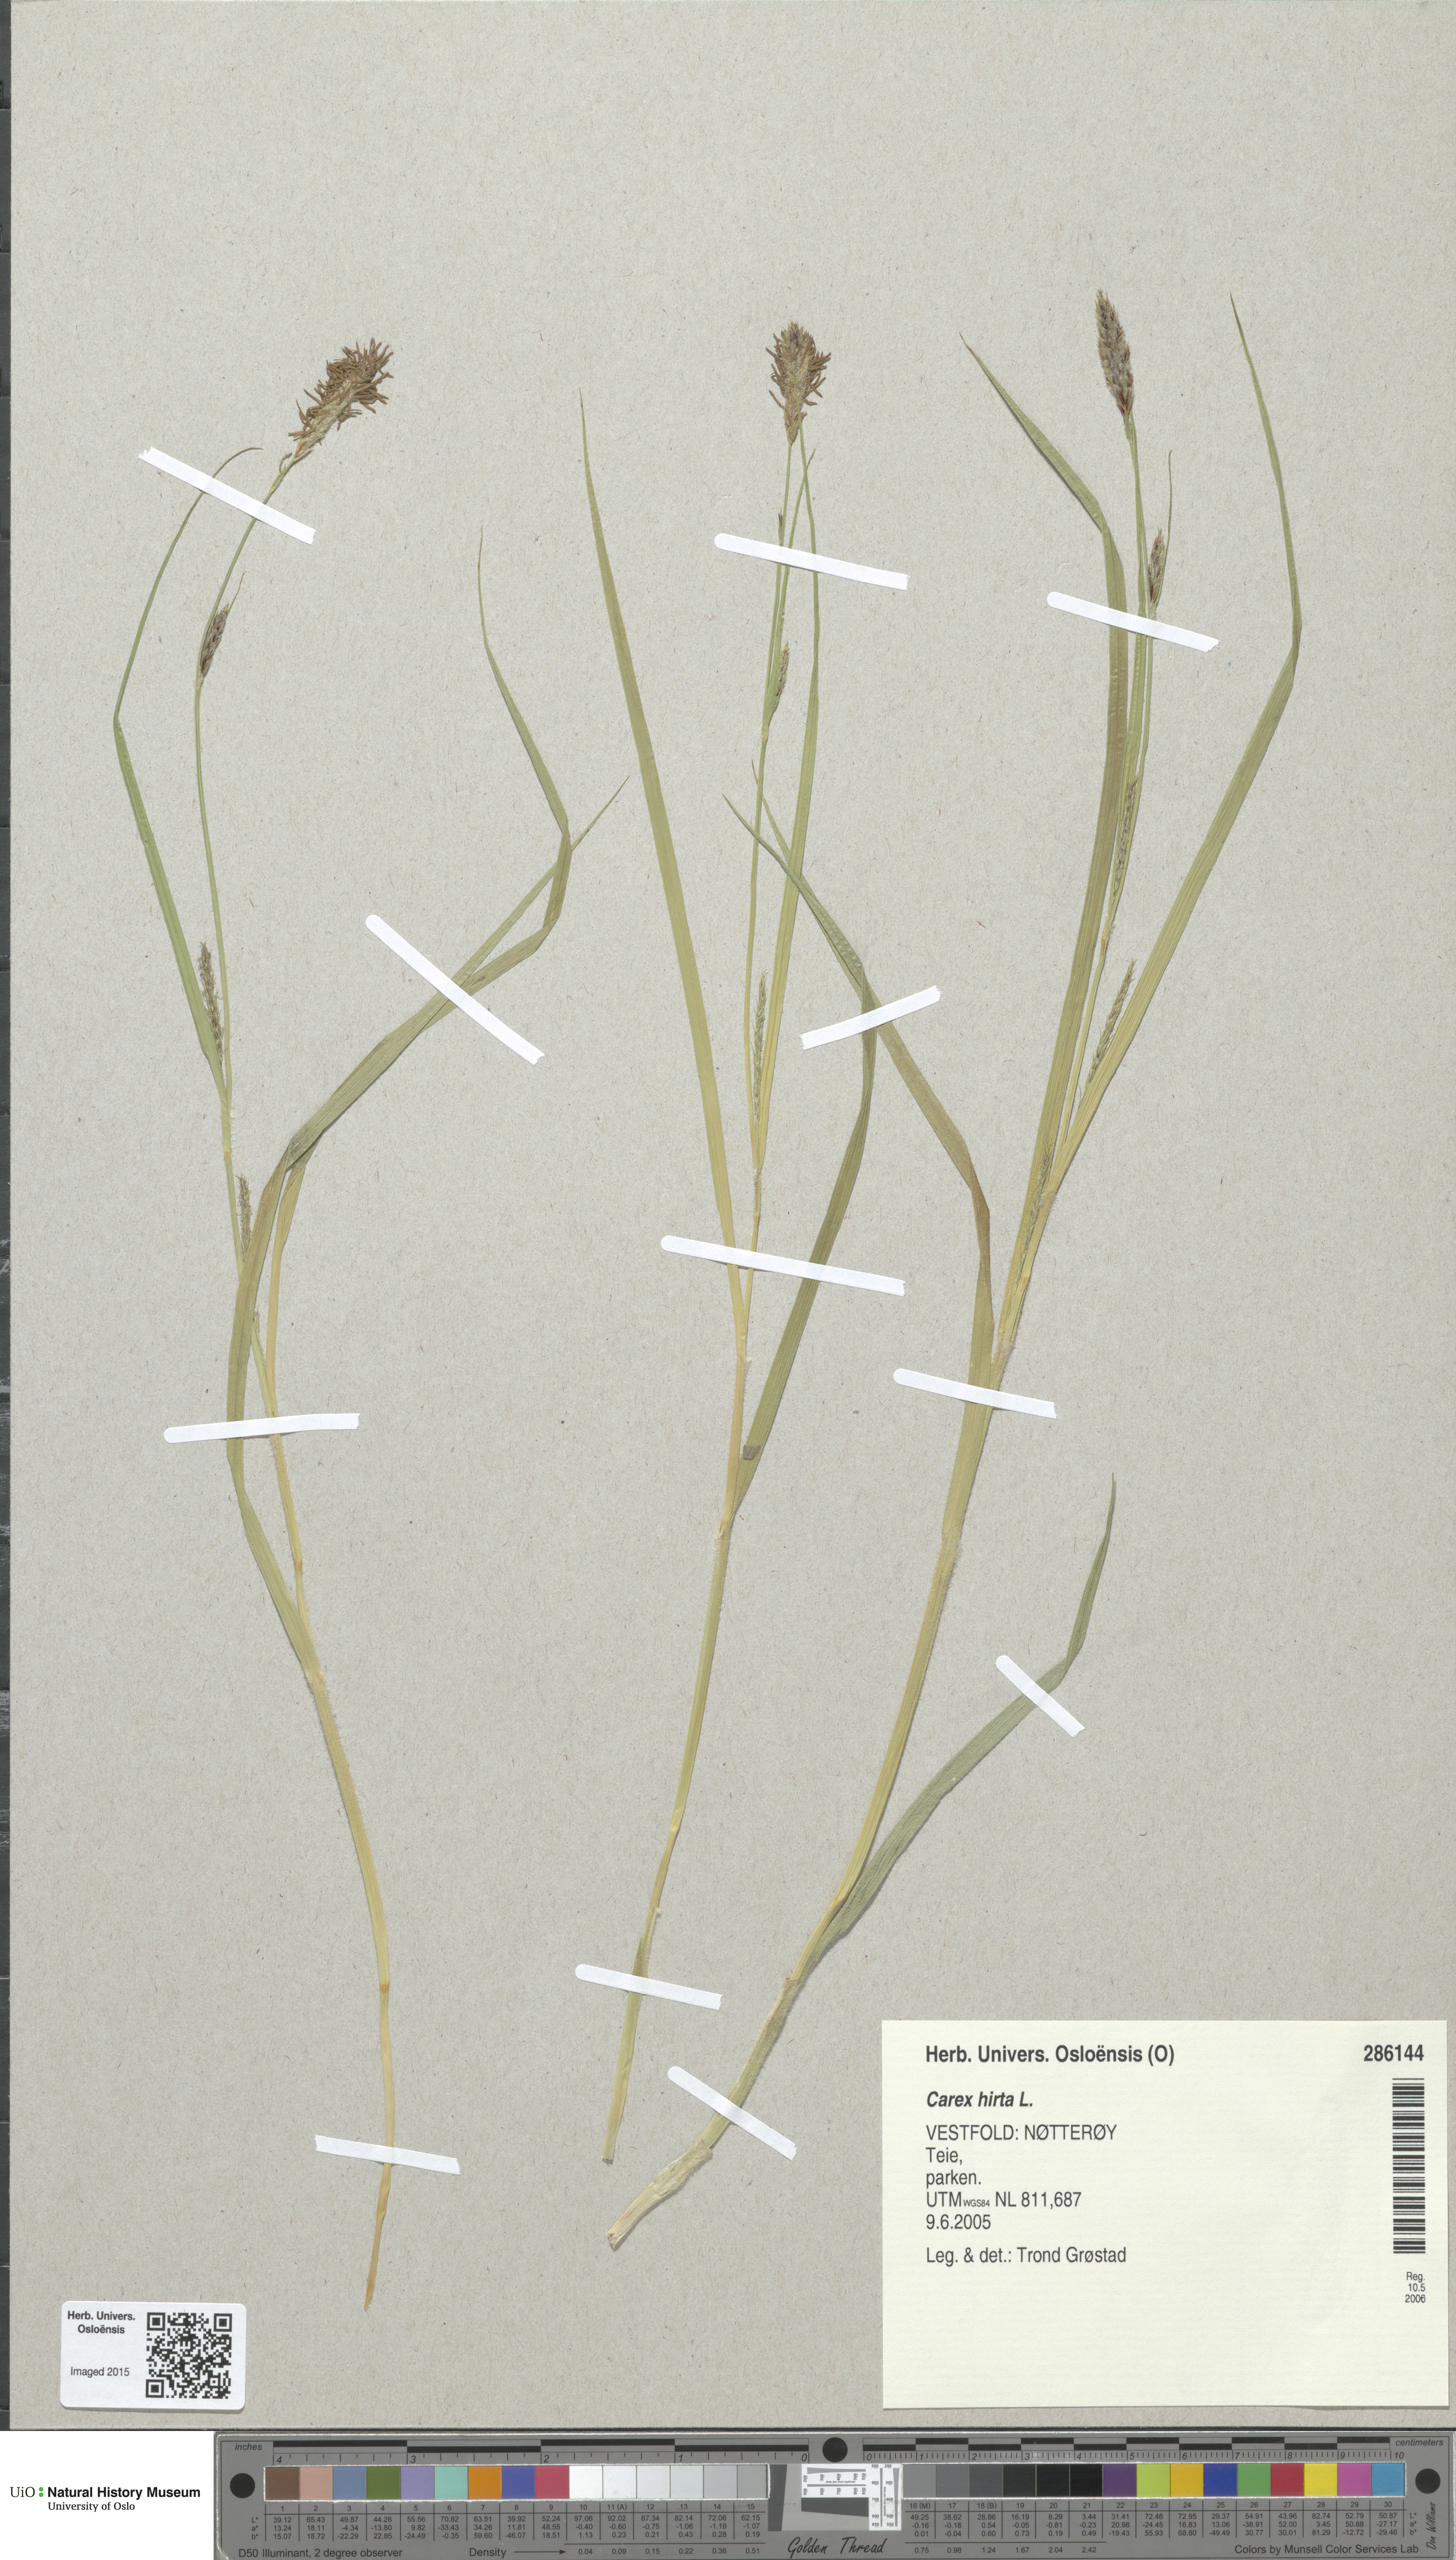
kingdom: Plantae
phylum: Tracheophyta
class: Liliopsida
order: Poales
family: Cyperaceae
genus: Carex
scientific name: Carex hirta
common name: Hairy sedge
